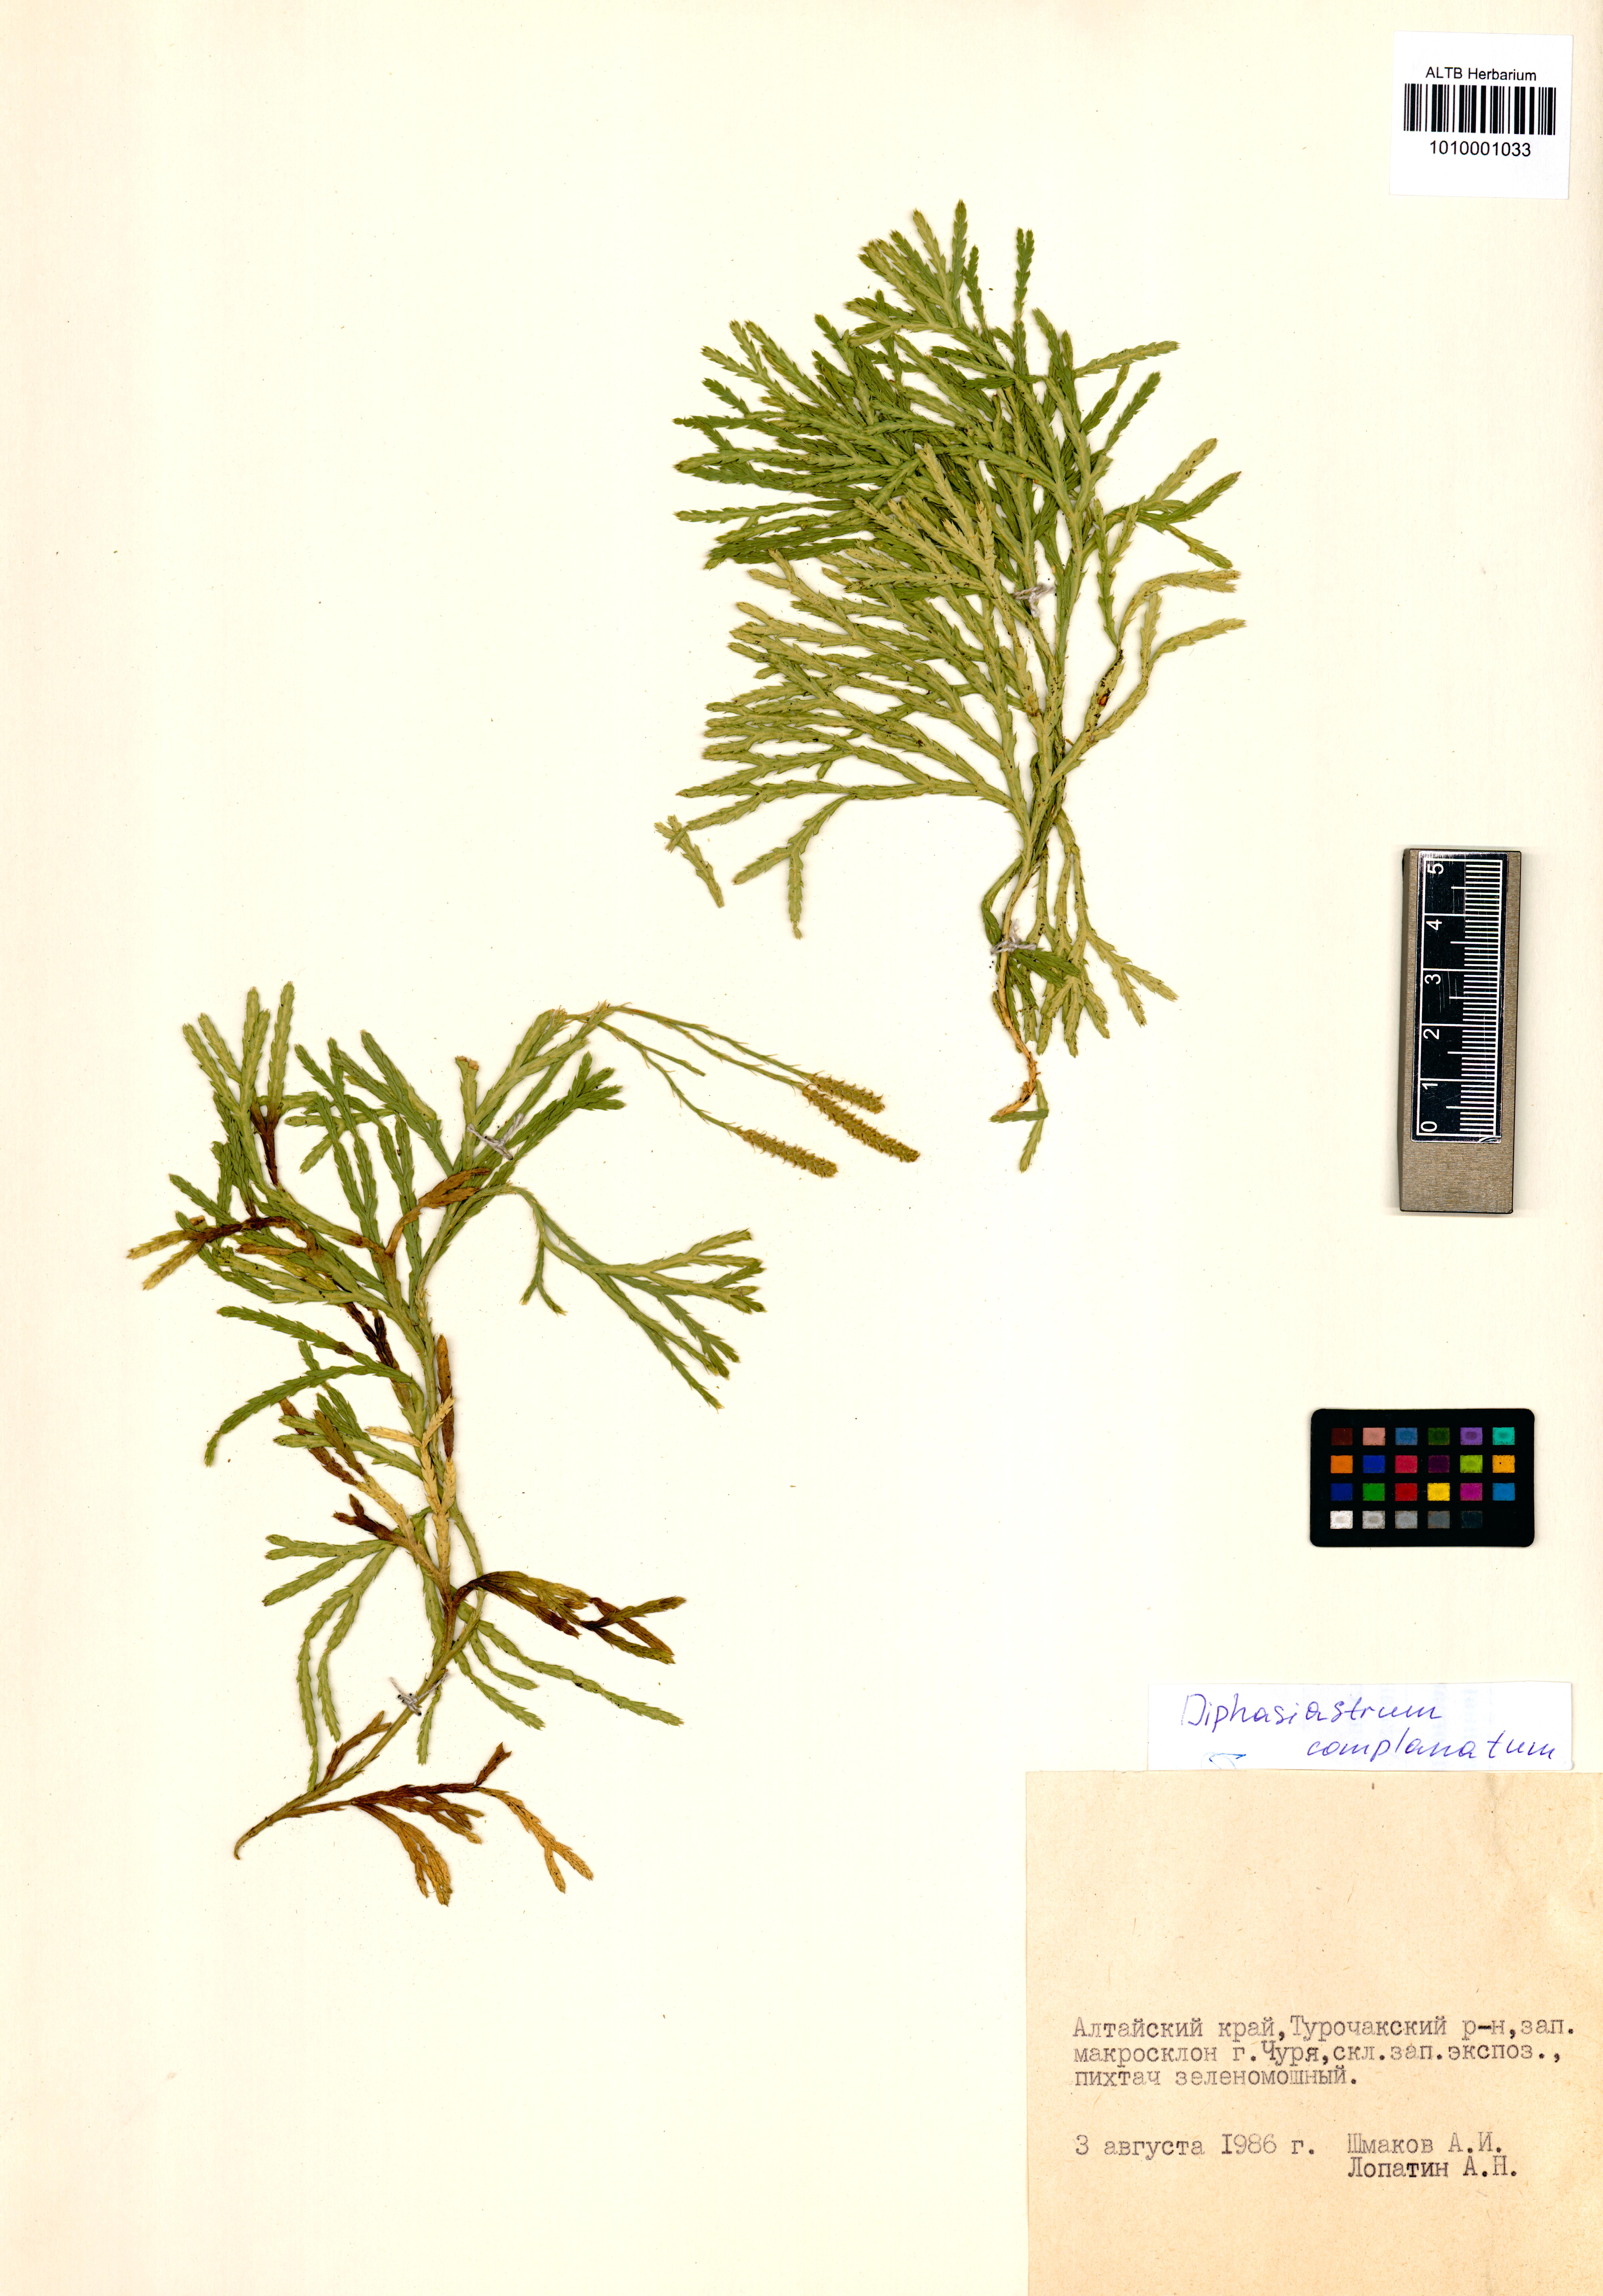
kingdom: Plantae
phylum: Tracheophyta
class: Lycopodiopsida
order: Lycopodiales
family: Lycopodiaceae
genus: Diphasiastrum
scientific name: Diphasiastrum complanatum
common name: Northern running-pine
